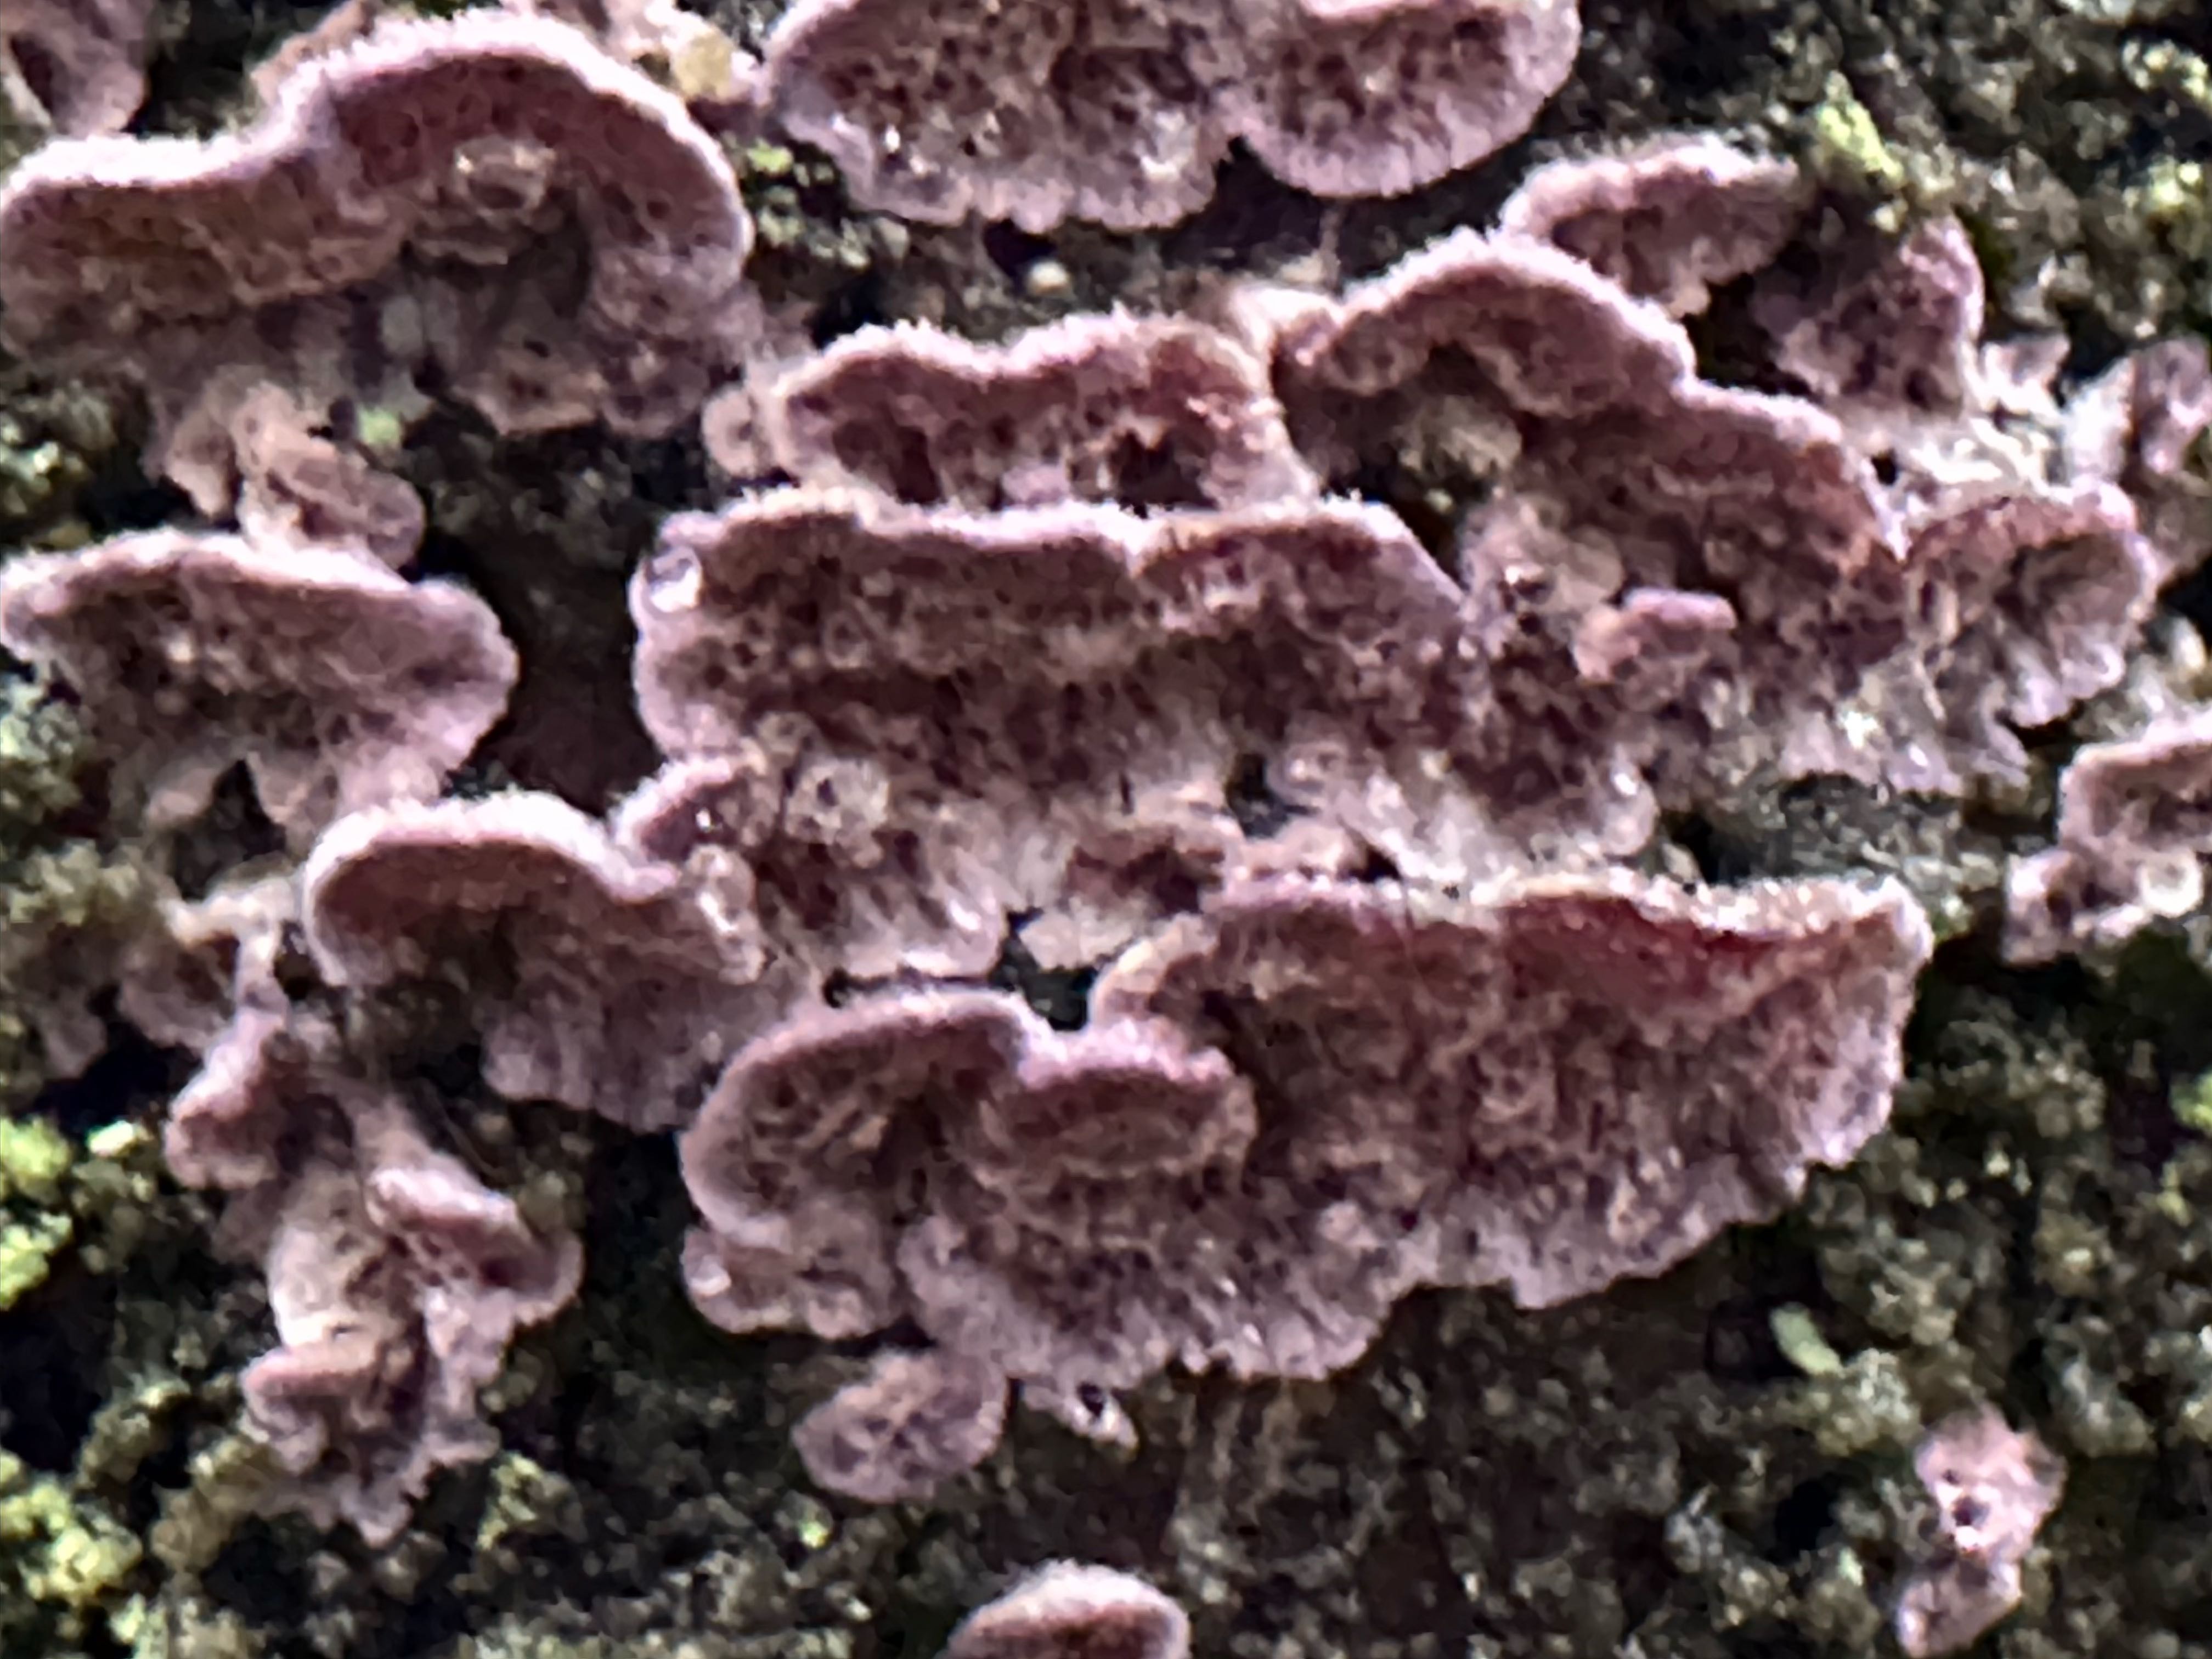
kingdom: Fungi
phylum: Basidiomycota
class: Agaricomycetes
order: Hymenochaetales
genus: Trichaptum
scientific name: Trichaptum fuscoviolaceum
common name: tandet violporesvamp
